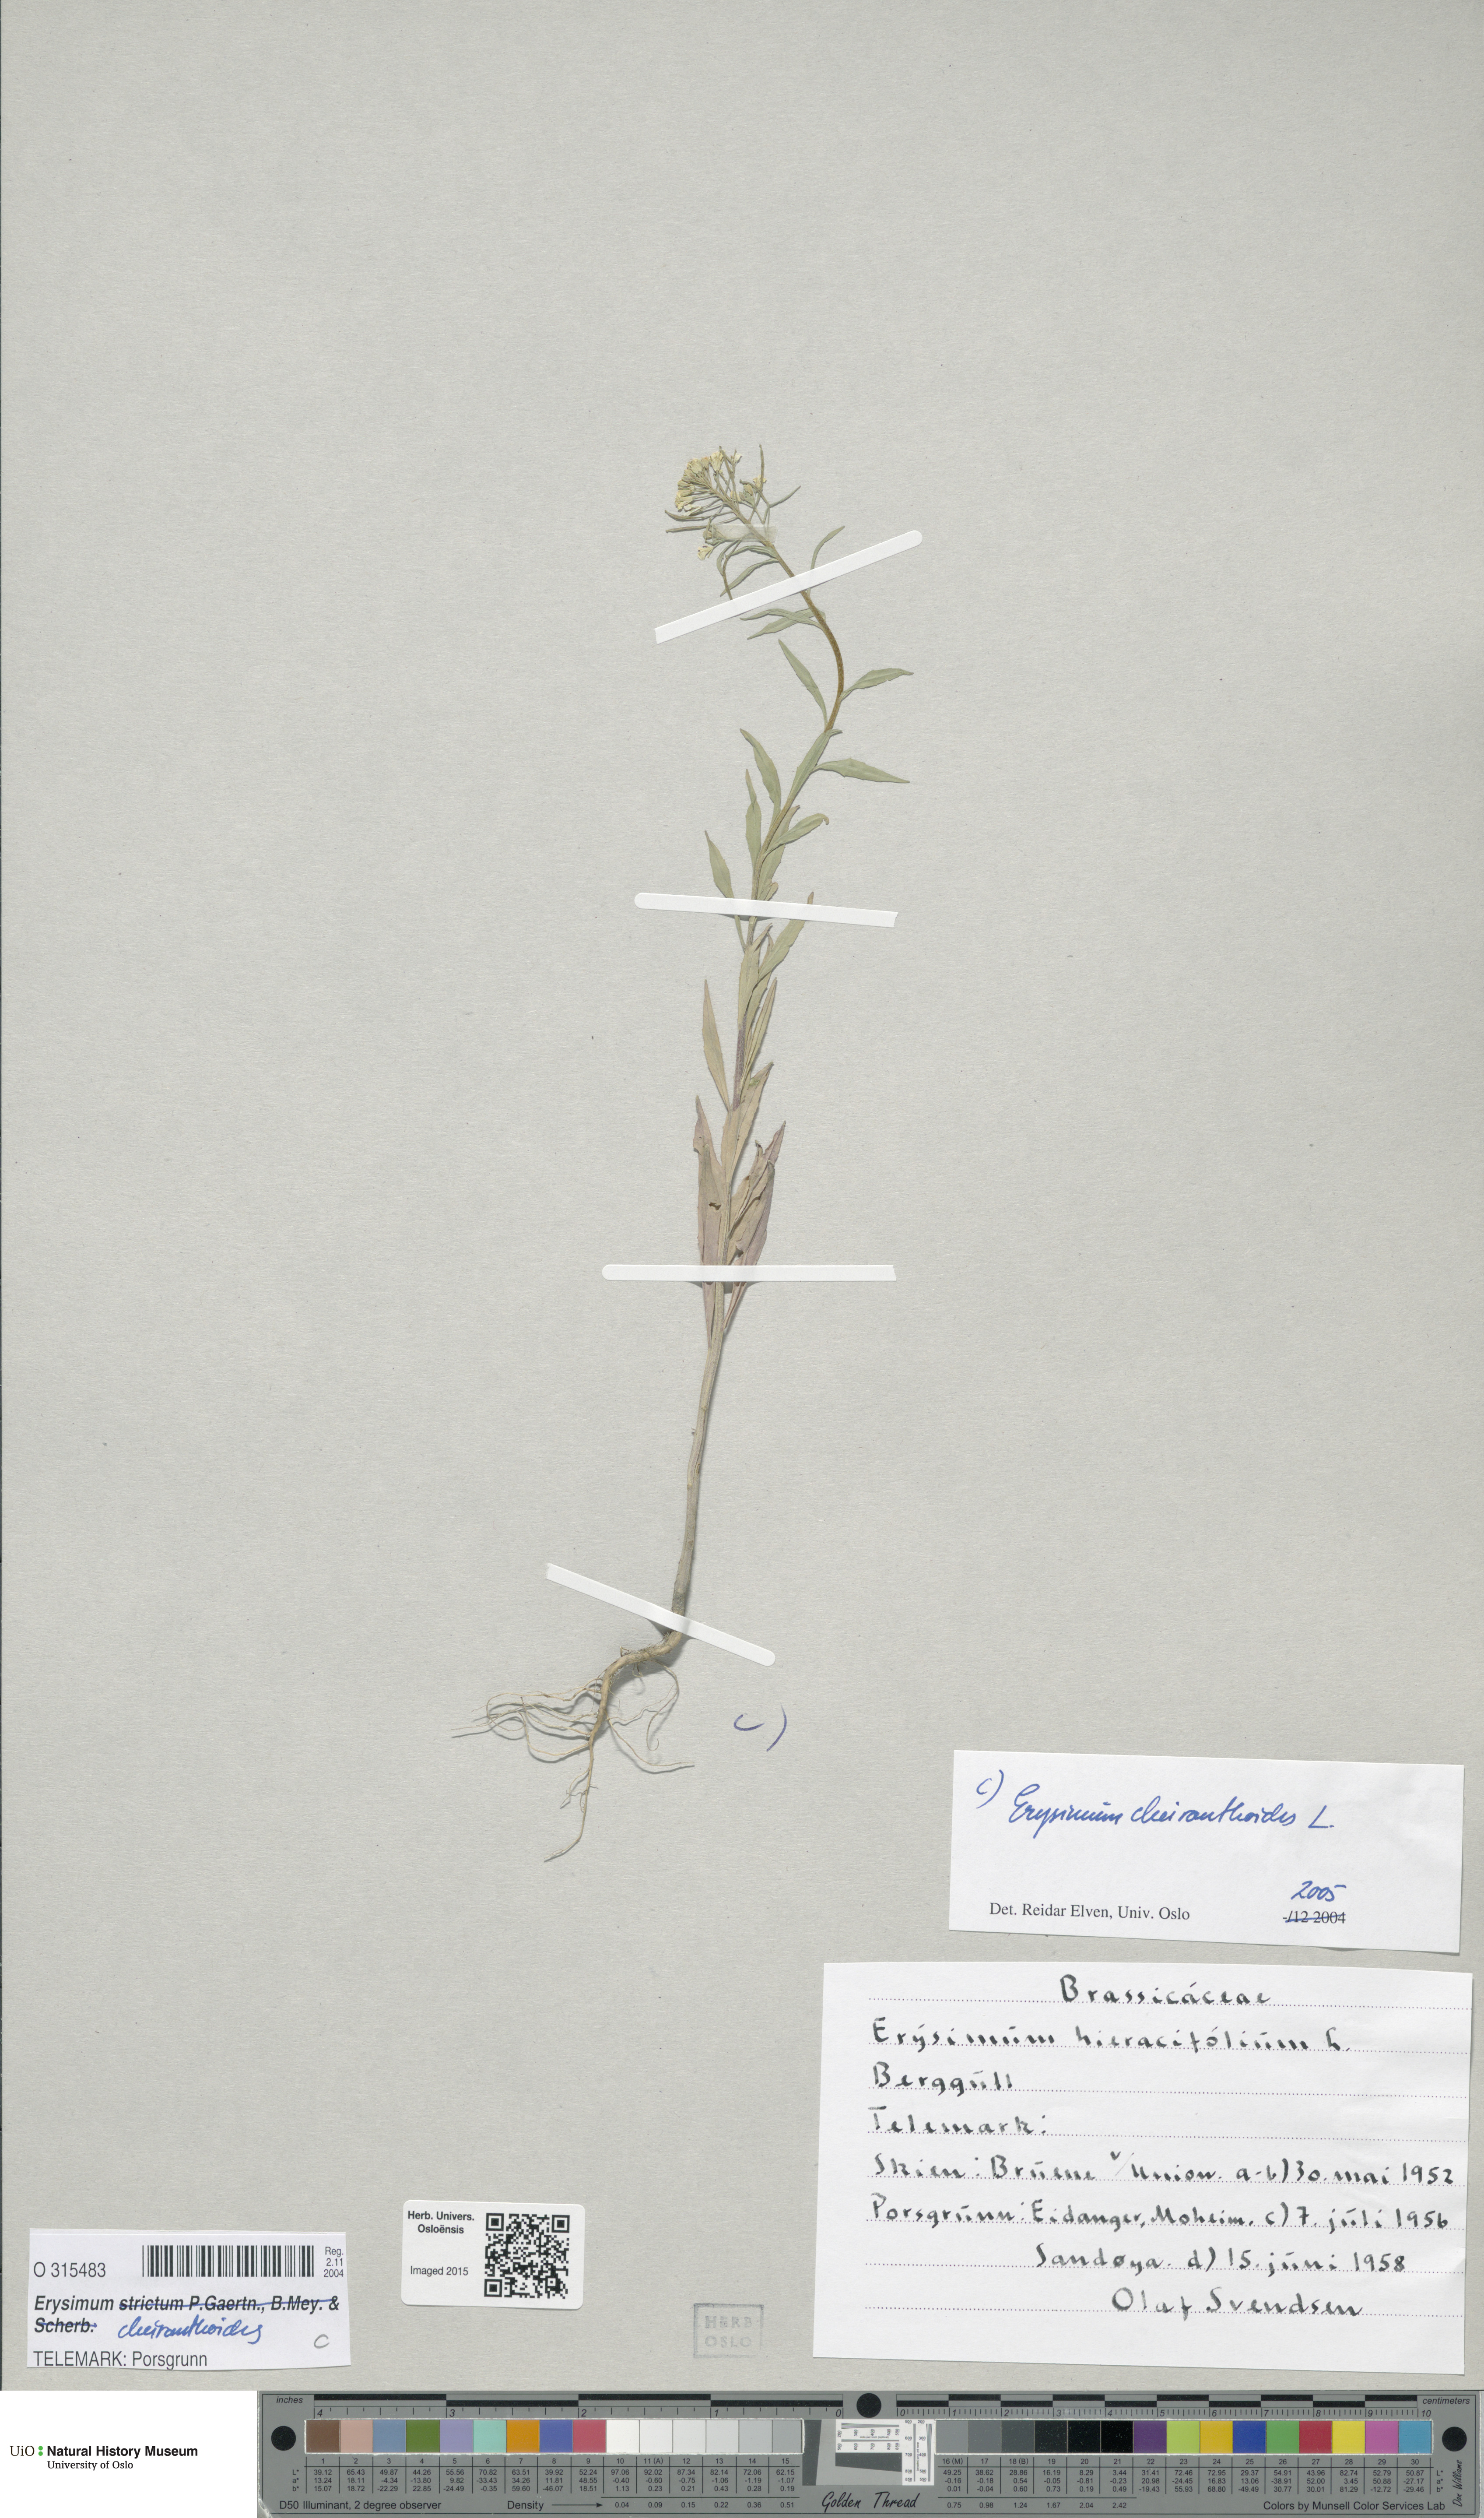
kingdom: Plantae
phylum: Tracheophyta
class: Magnoliopsida
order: Brassicales
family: Brassicaceae
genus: Erysimum
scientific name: Erysimum cheiranthoides
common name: Treacle mustard
